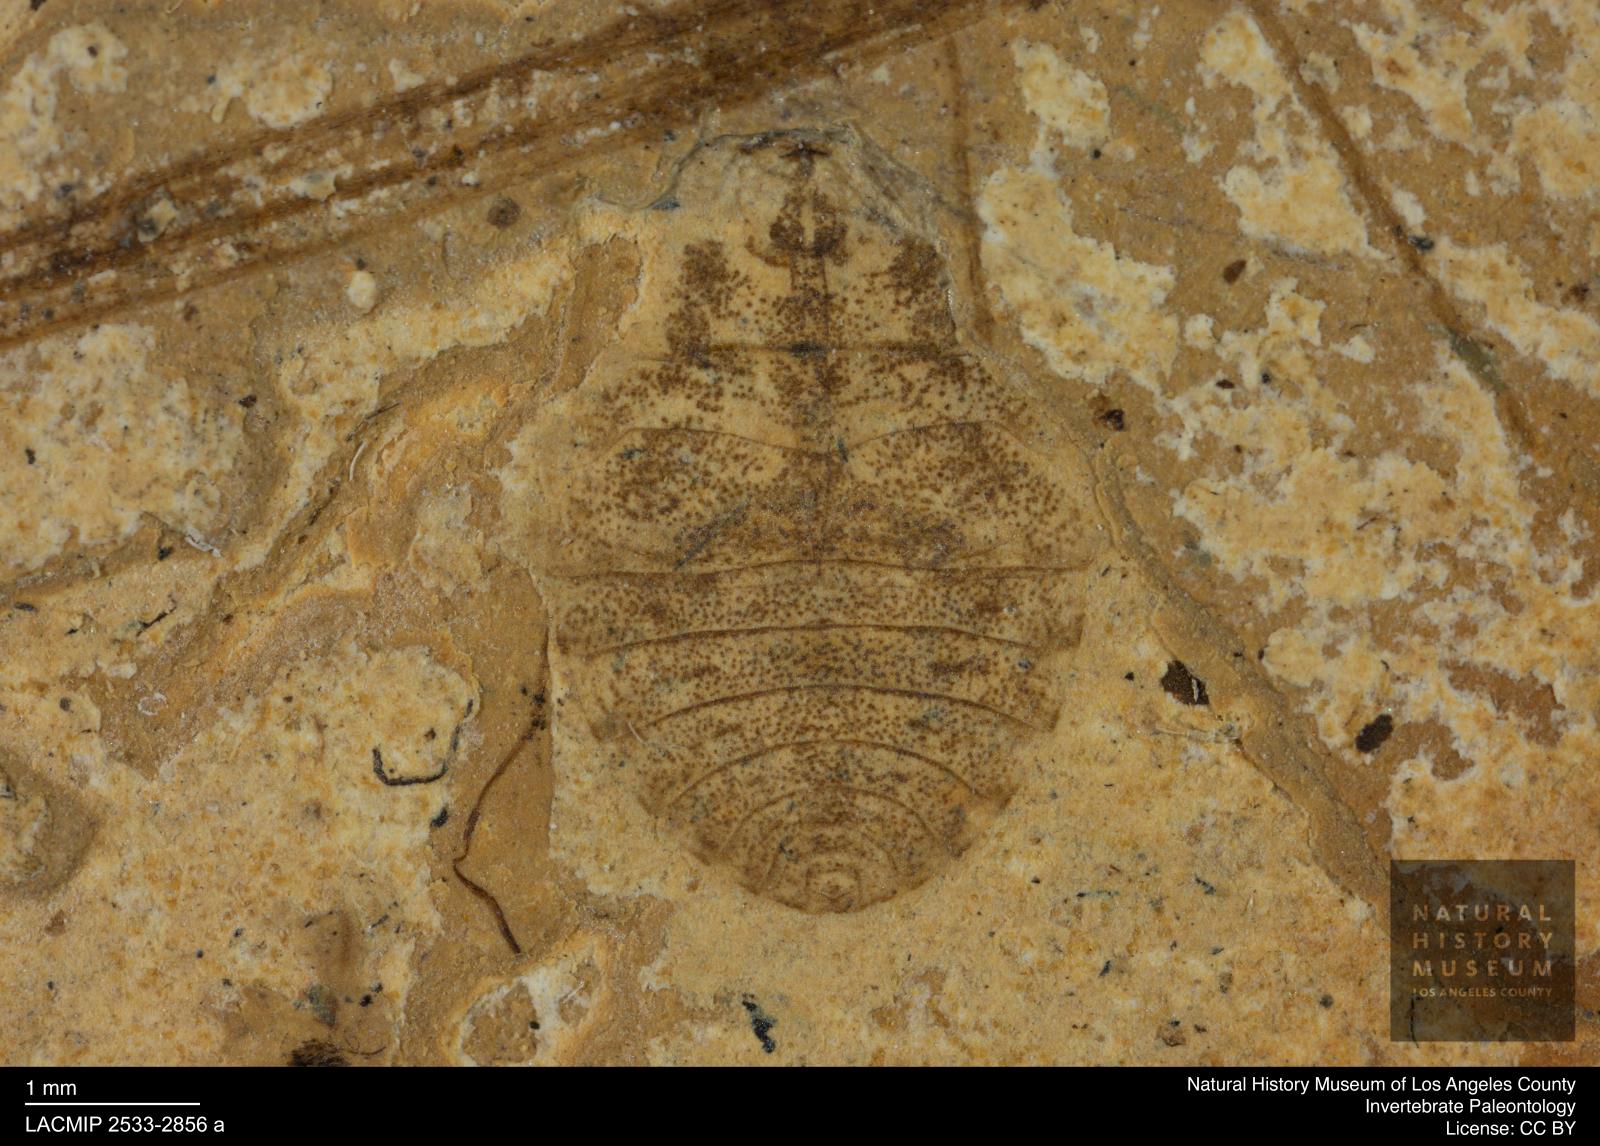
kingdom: Animalia
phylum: Arthropoda
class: Insecta
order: Hemiptera
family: Naucoridae
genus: Naucoris
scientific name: Naucoris rottensis
